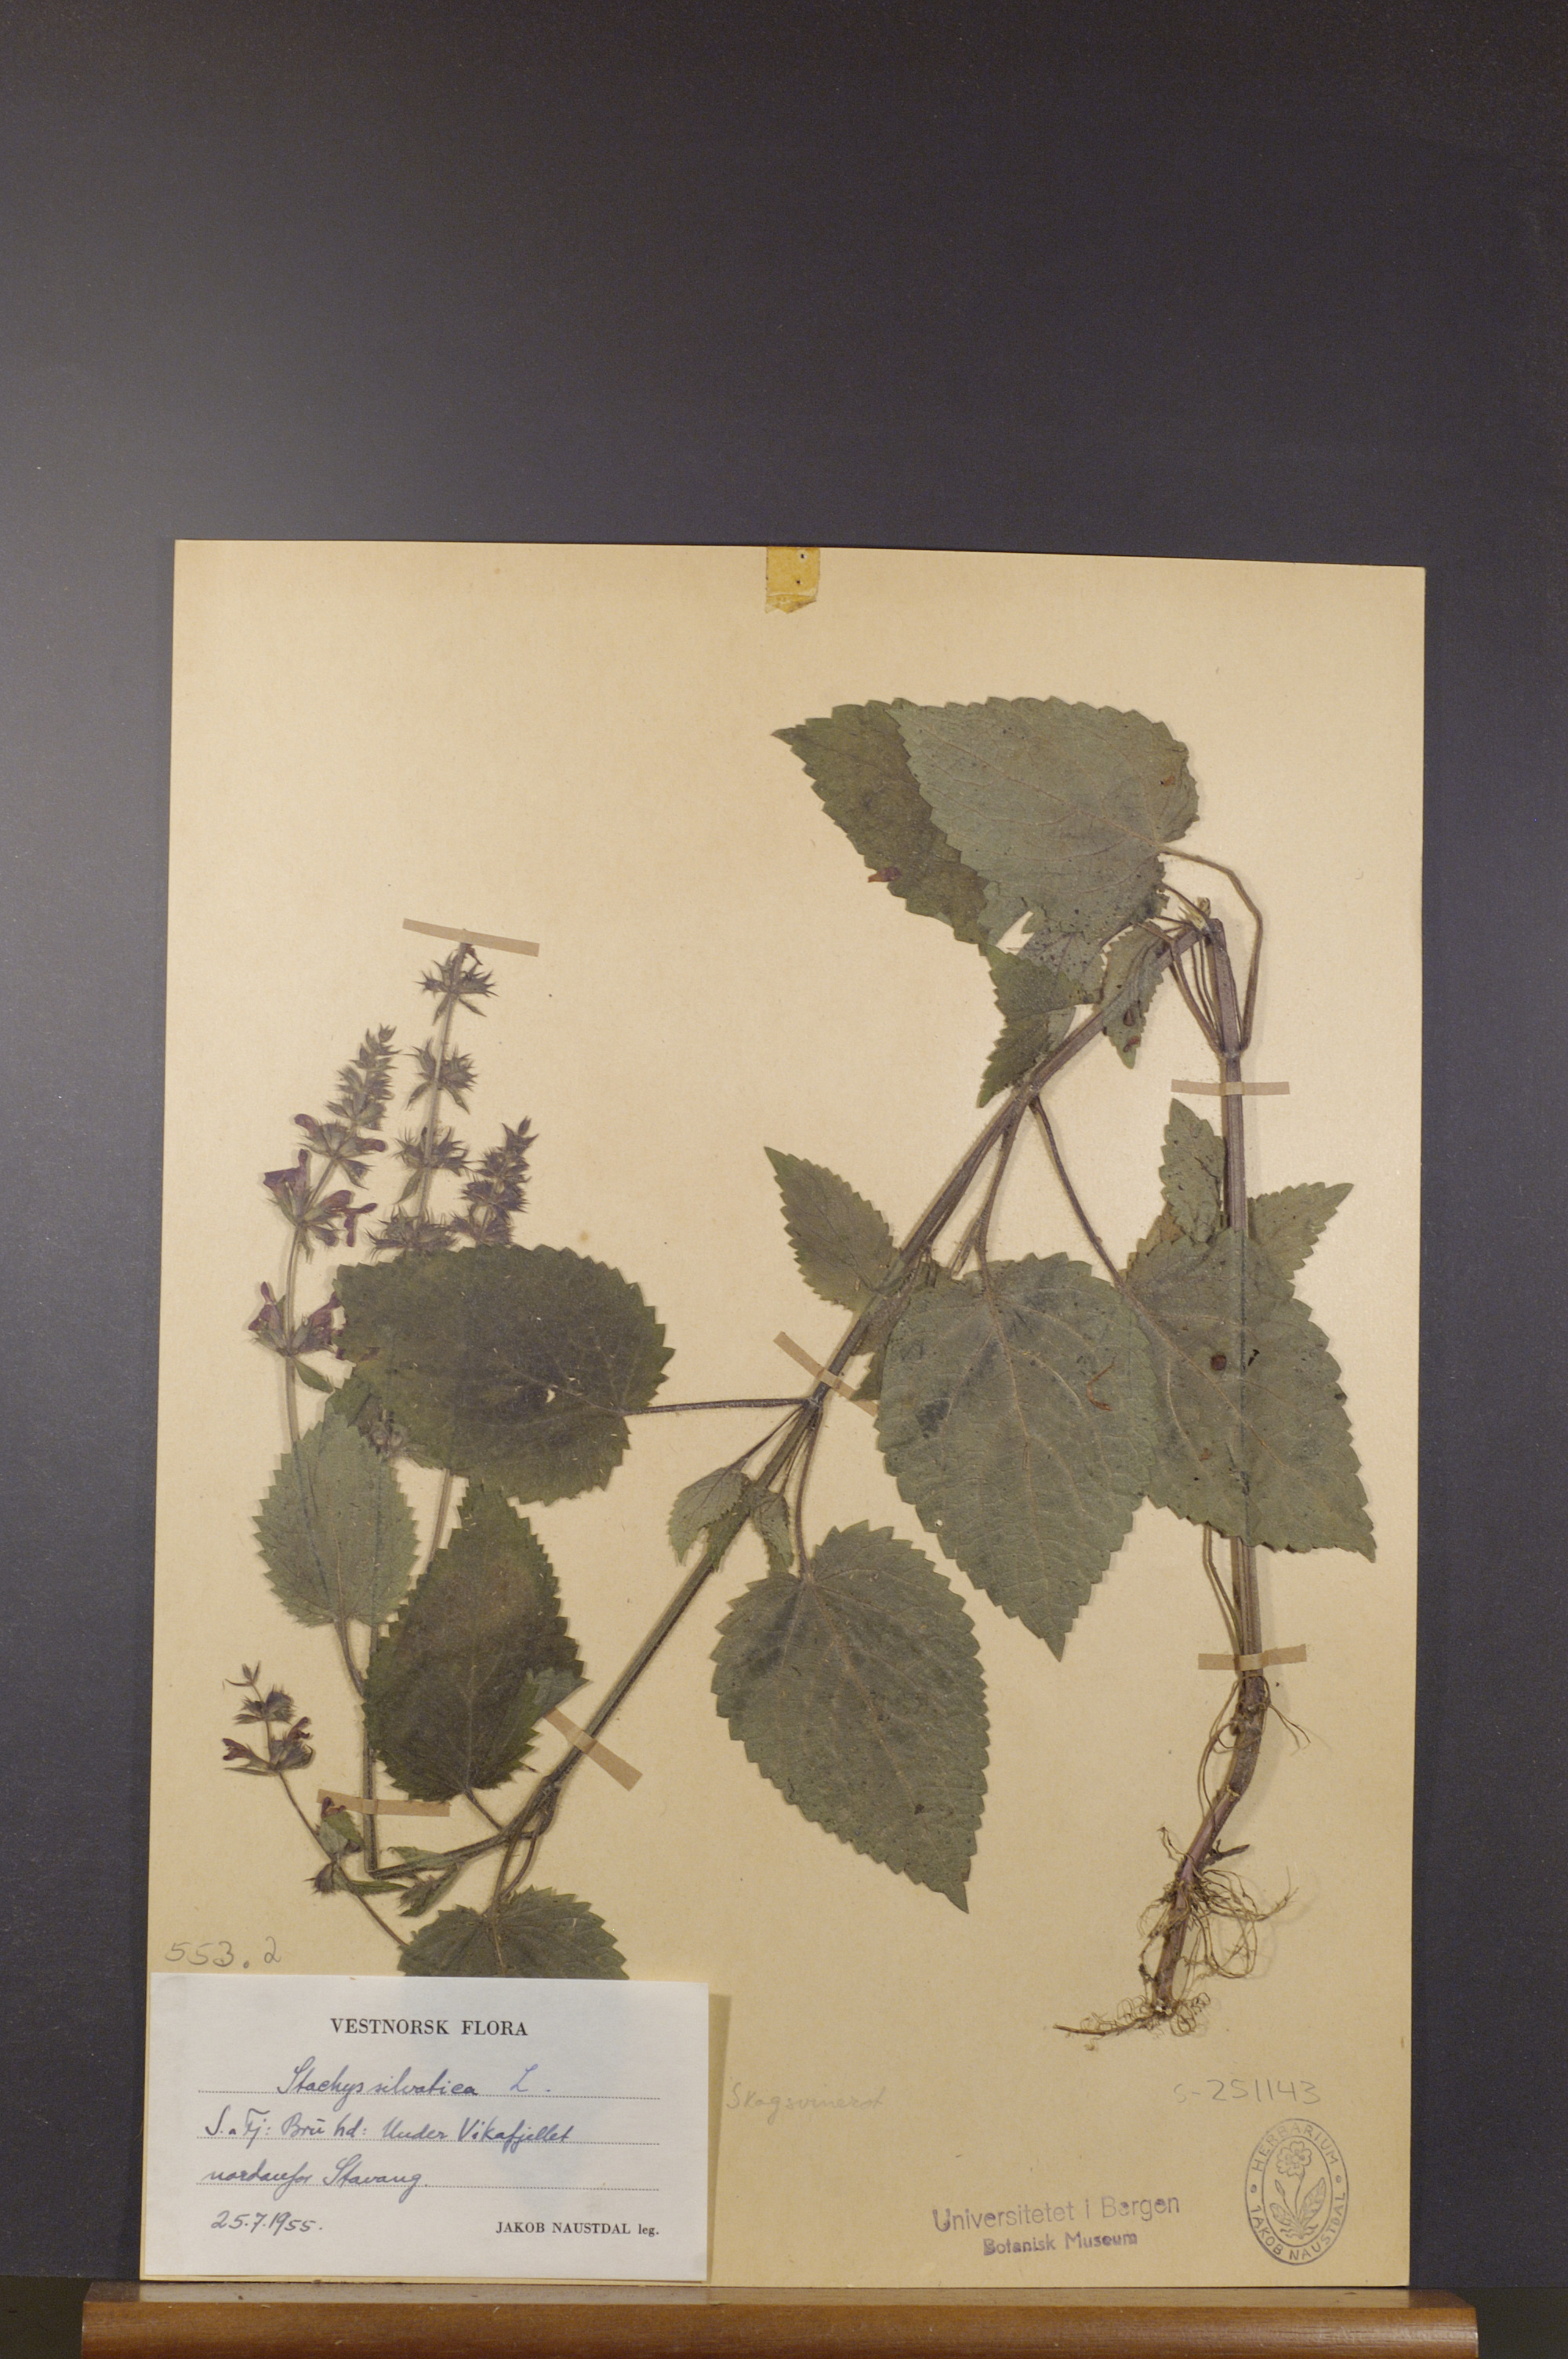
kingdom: Plantae
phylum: Tracheophyta
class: Magnoliopsida
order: Lamiales
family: Lamiaceae
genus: Stachys
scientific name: Stachys sylvatica
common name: Hedge woundwort
